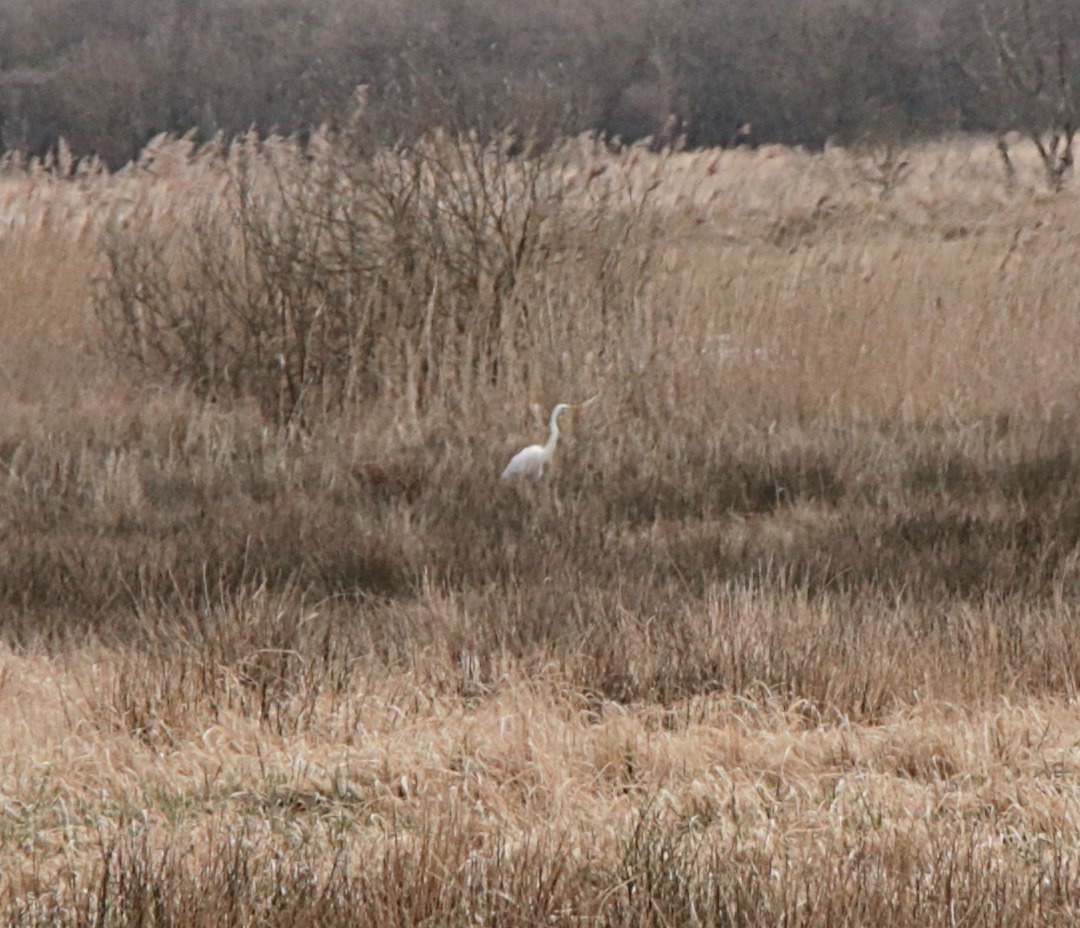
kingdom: Animalia
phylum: Chordata
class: Aves
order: Pelecaniformes
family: Ardeidae
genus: Ardea
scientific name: Ardea alba
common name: Sølvhejre
